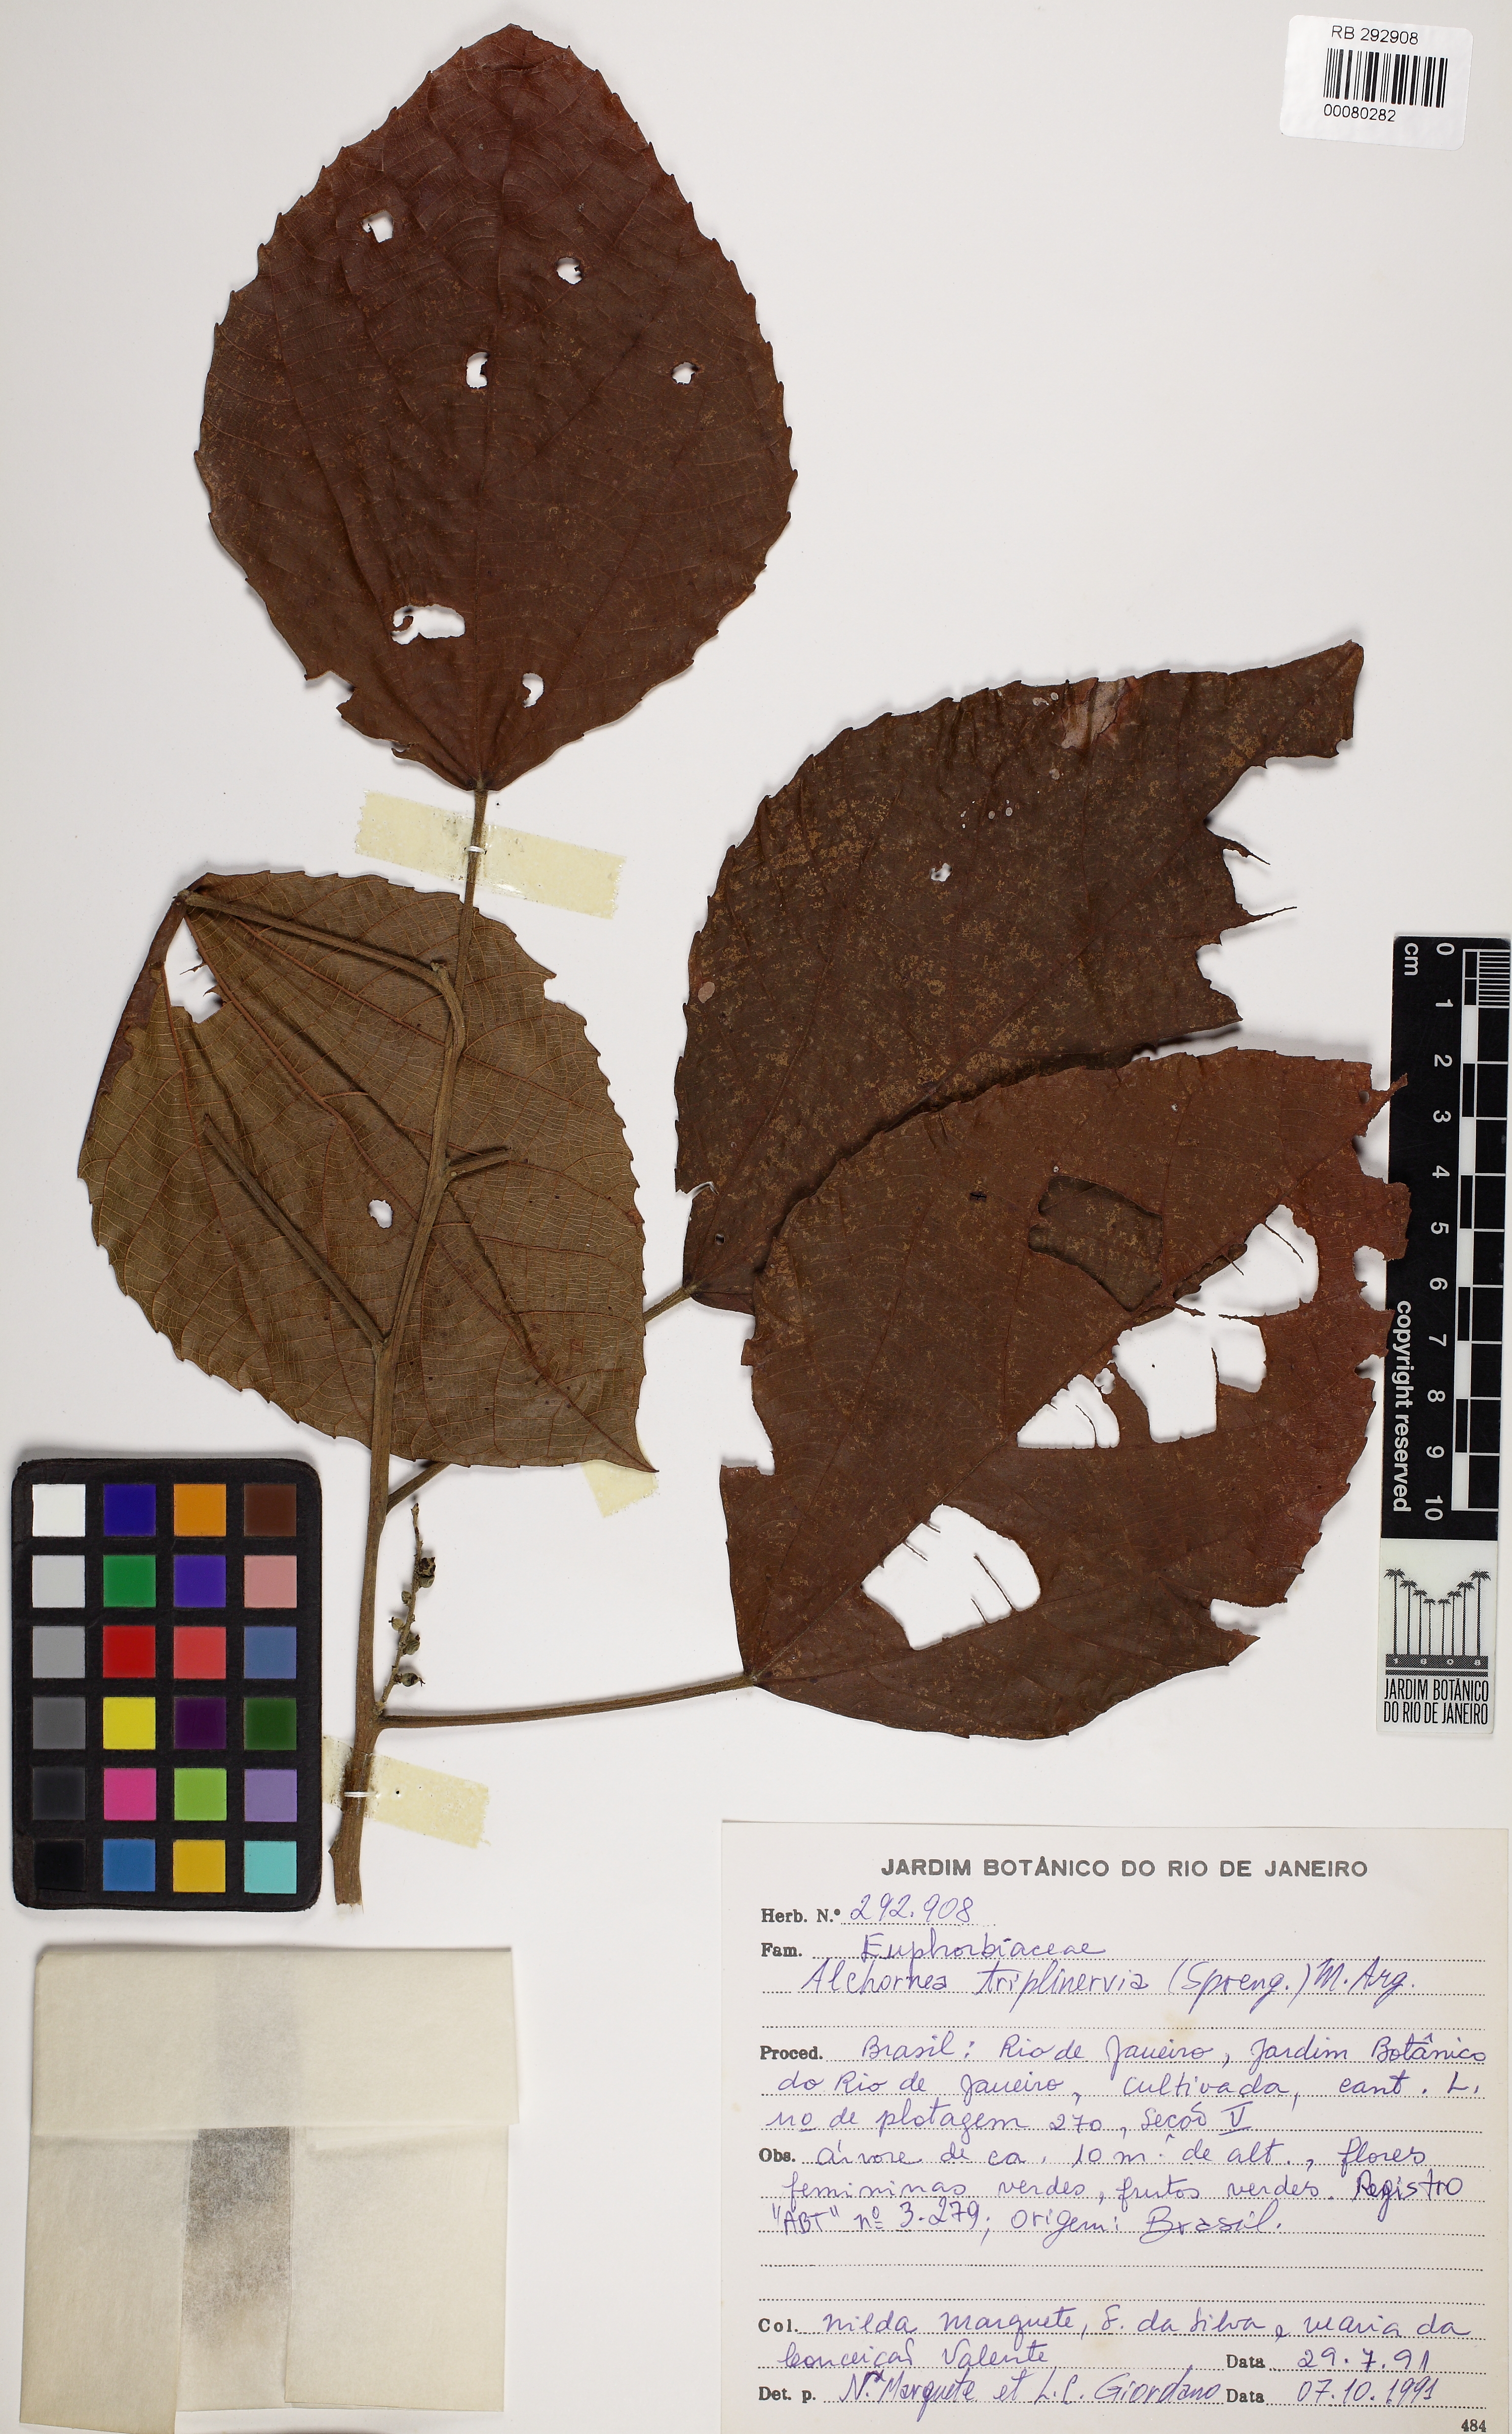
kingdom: Plantae
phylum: Tracheophyta
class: Magnoliopsida
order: Malpighiales
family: Euphorbiaceae
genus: Alchornea
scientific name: Alchornea triplinervia
